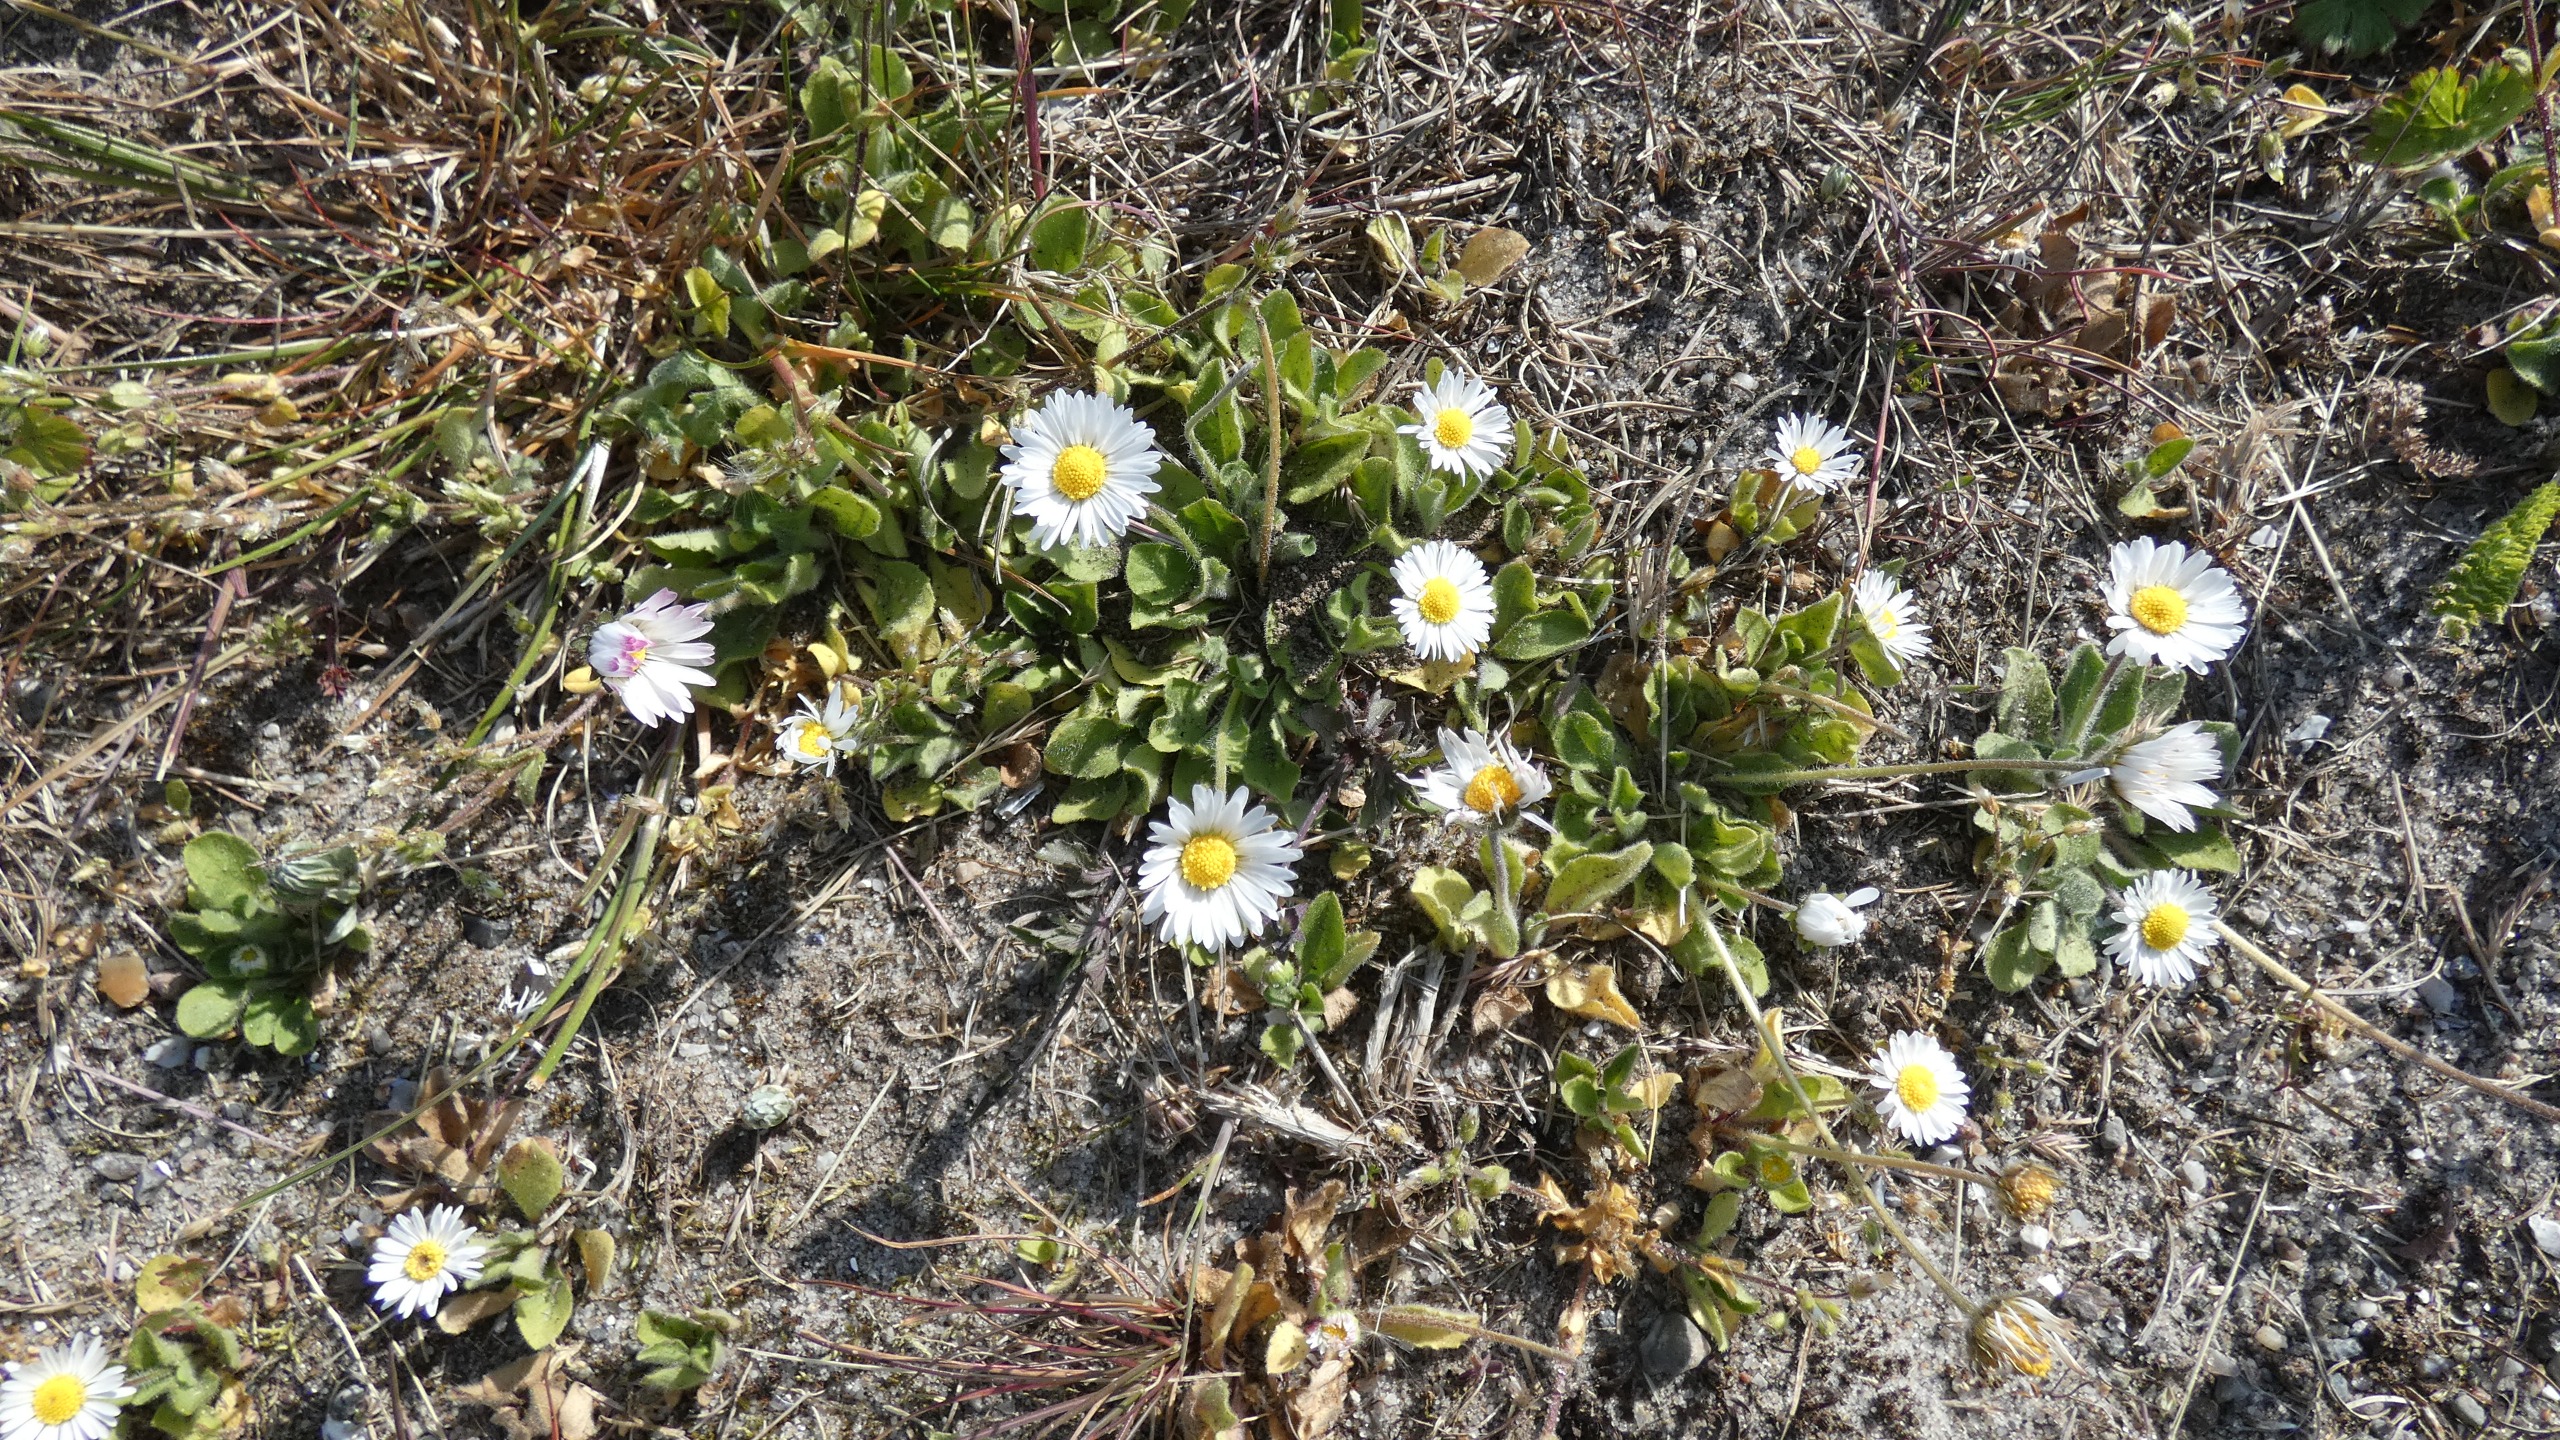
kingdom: Plantae
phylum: Tracheophyta
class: Magnoliopsida
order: Asterales
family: Asteraceae
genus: Bellis
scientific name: Bellis perennis
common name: Tusindfryd
